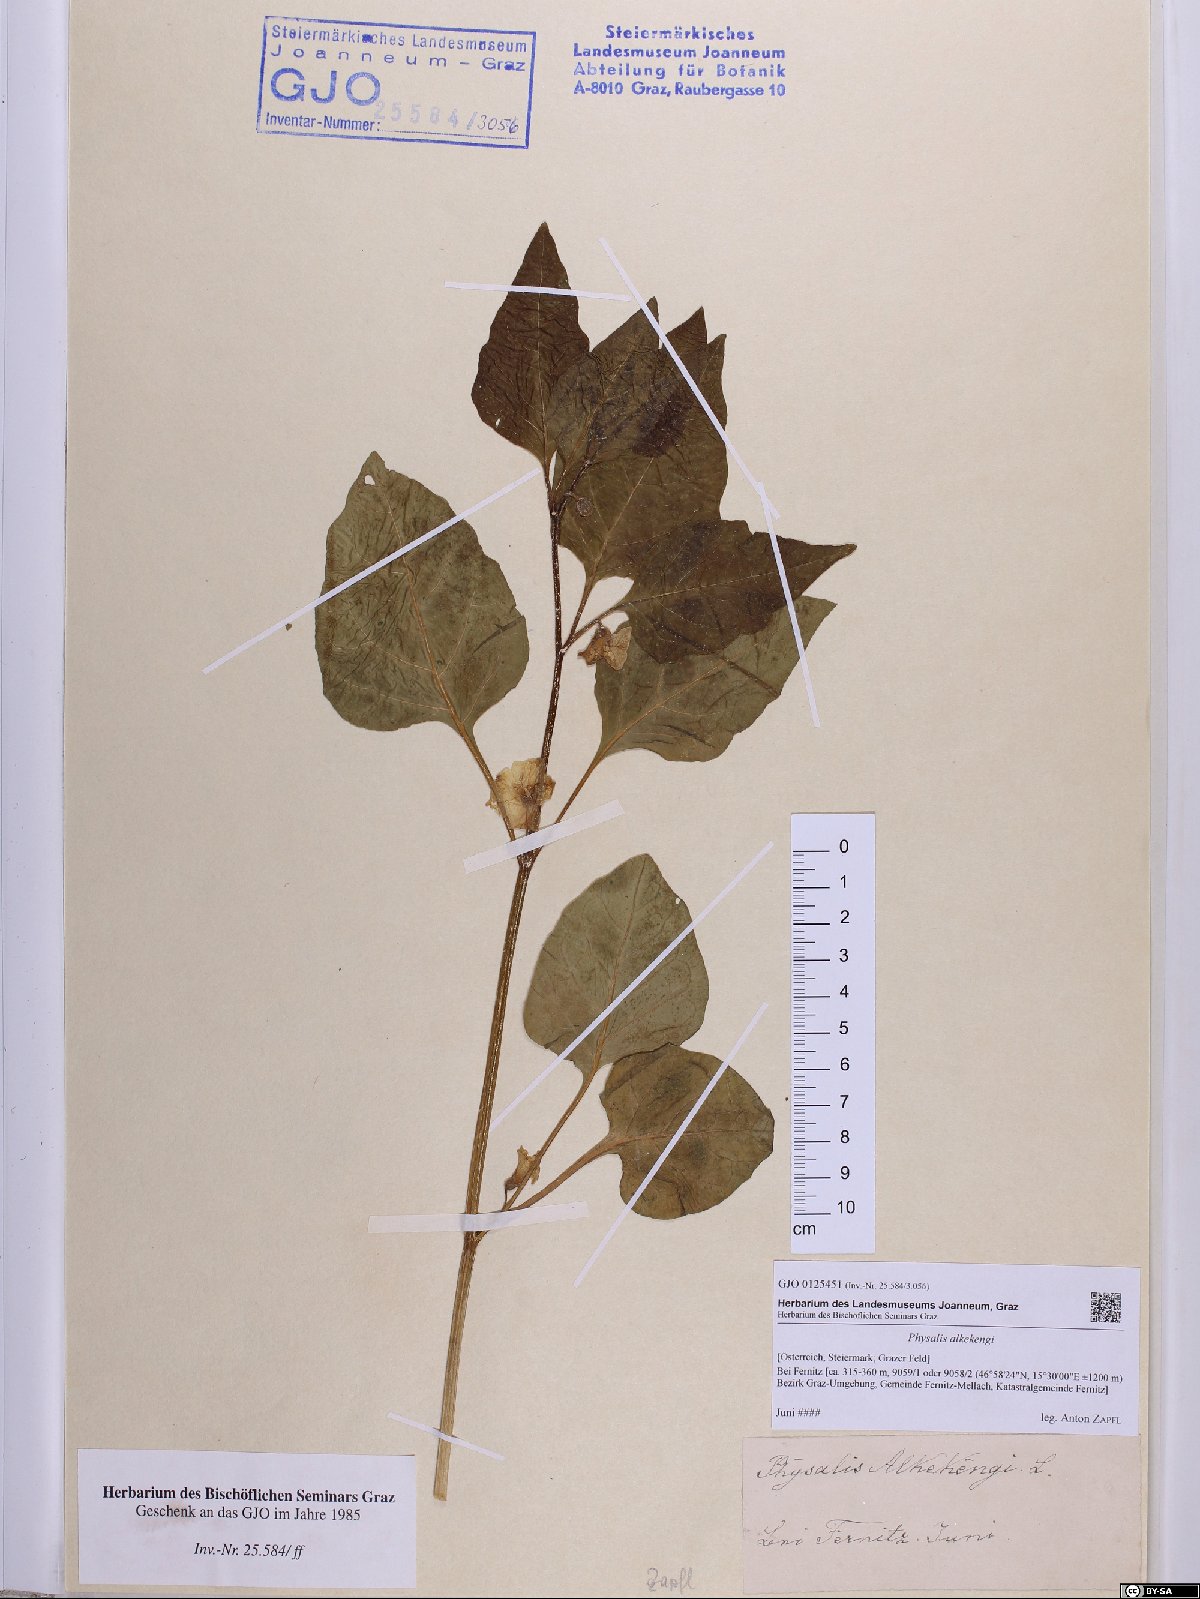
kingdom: Plantae
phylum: Tracheophyta
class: Magnoliopsida
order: Solanales
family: Solanaceae
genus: Alkekengi
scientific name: Alkekengi officinarum
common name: Japanese-lantern
